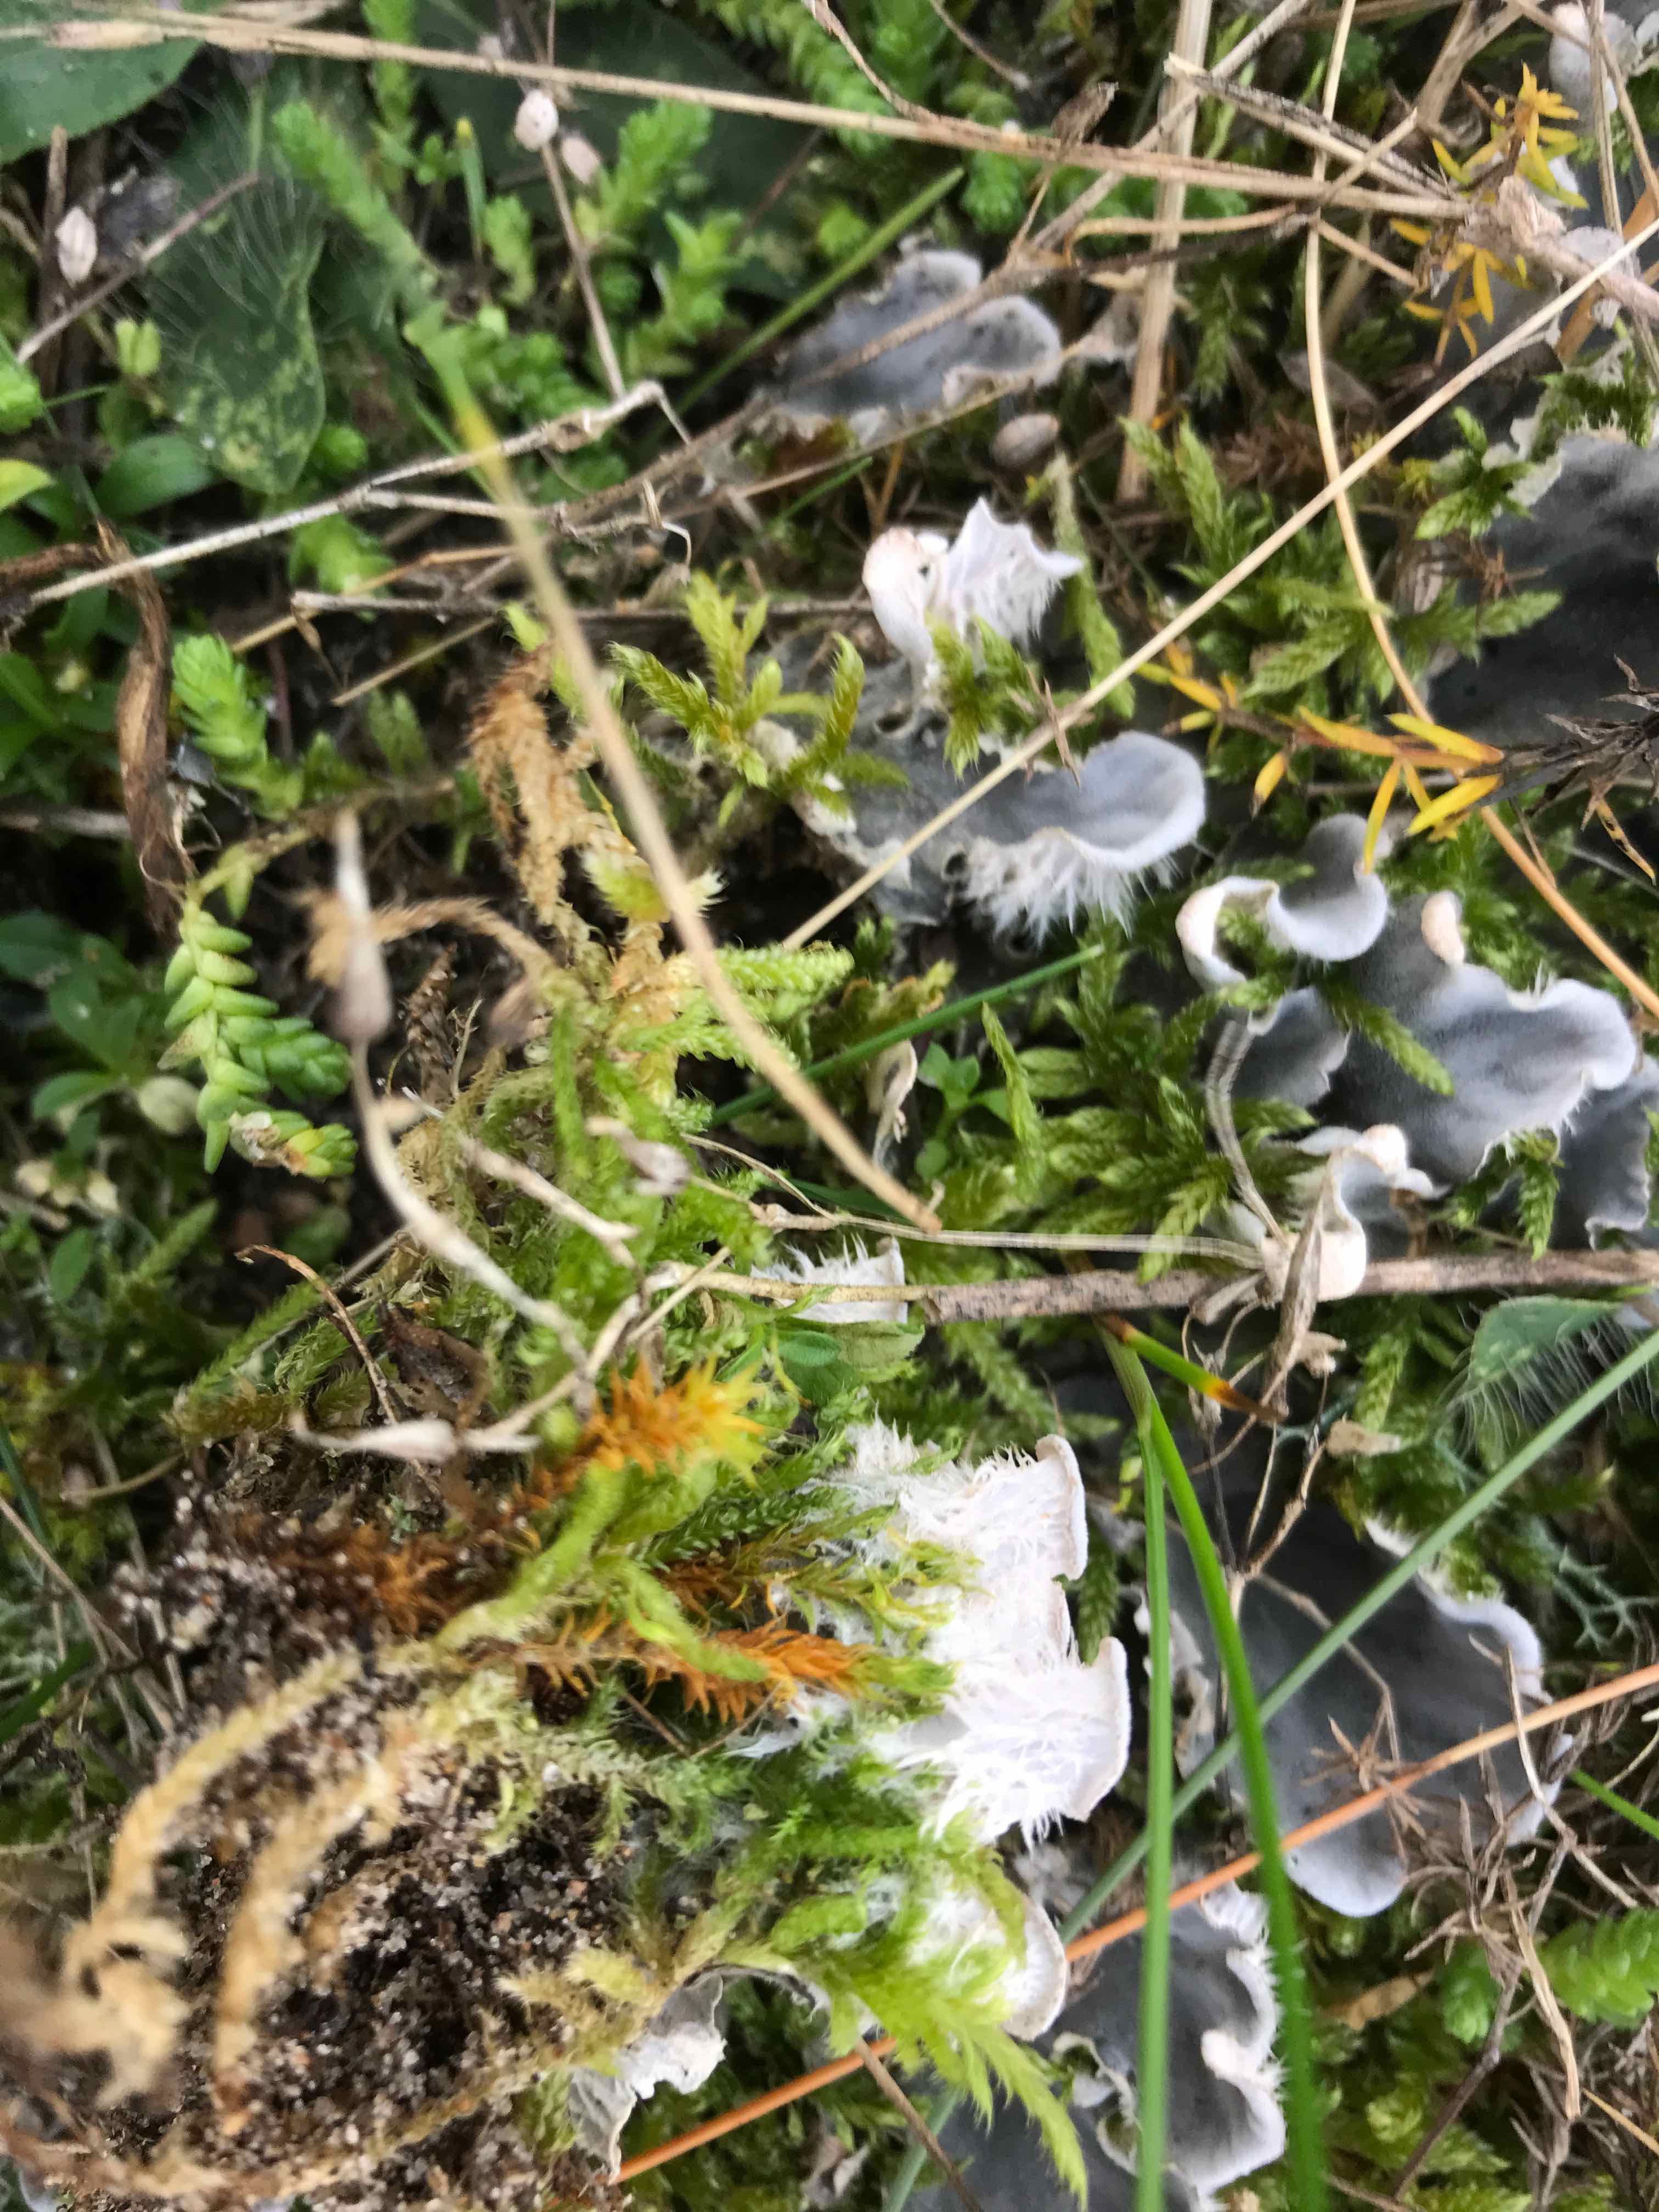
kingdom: Fungi
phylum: Ascomycota
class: Lecanoromycetes
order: Peltigerales
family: Peltigeraceae
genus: Peltigera
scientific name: Peltigera canina
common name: hunde-skjoldlav
